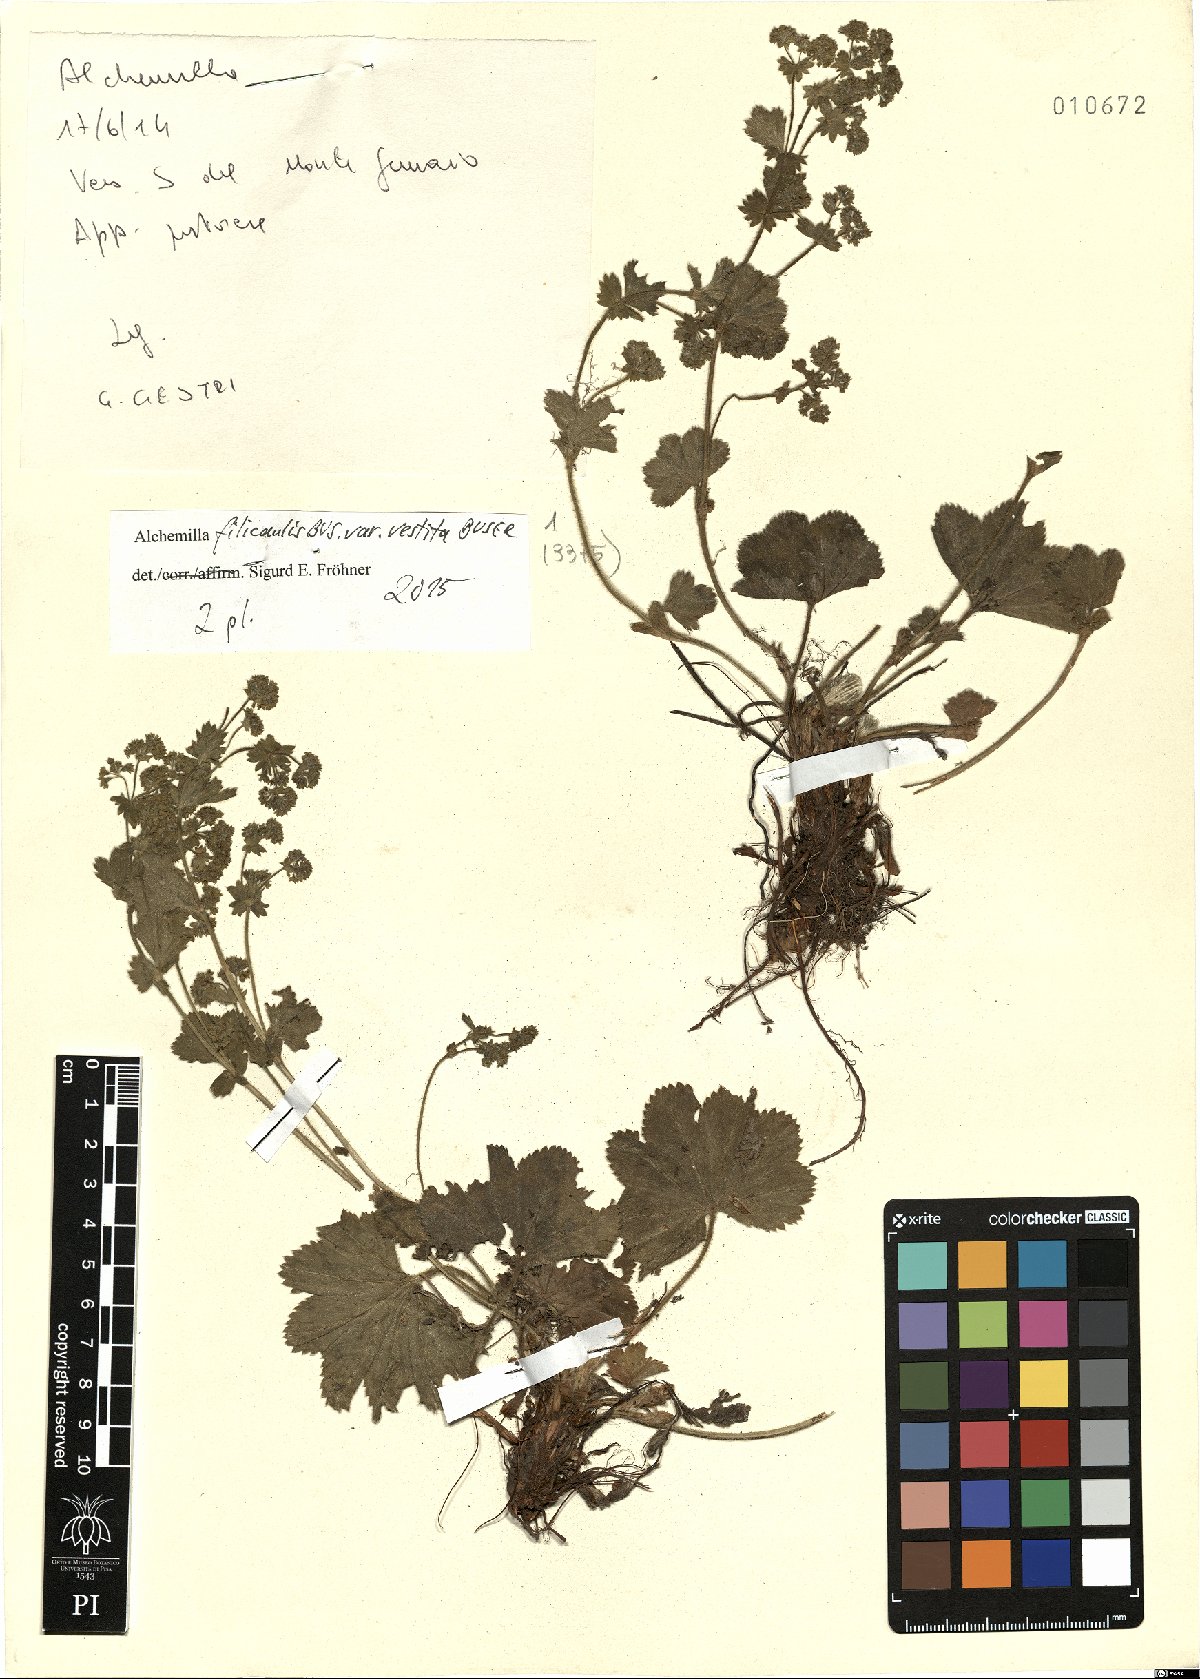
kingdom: Plantae
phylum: Tracheophyta
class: Magnoliopsida
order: Rosales
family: Rosaceae
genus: Alchemilla
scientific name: Alchemilla filicaulis
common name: Hairy lady's-mantle
